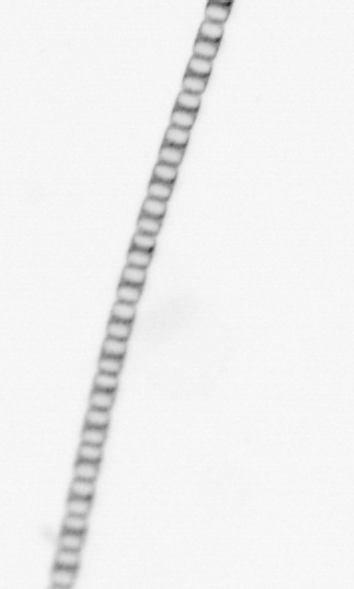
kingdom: Chromista
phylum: Ochrophyta
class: Bacillariophyceae
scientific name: Bacillariophyceae
